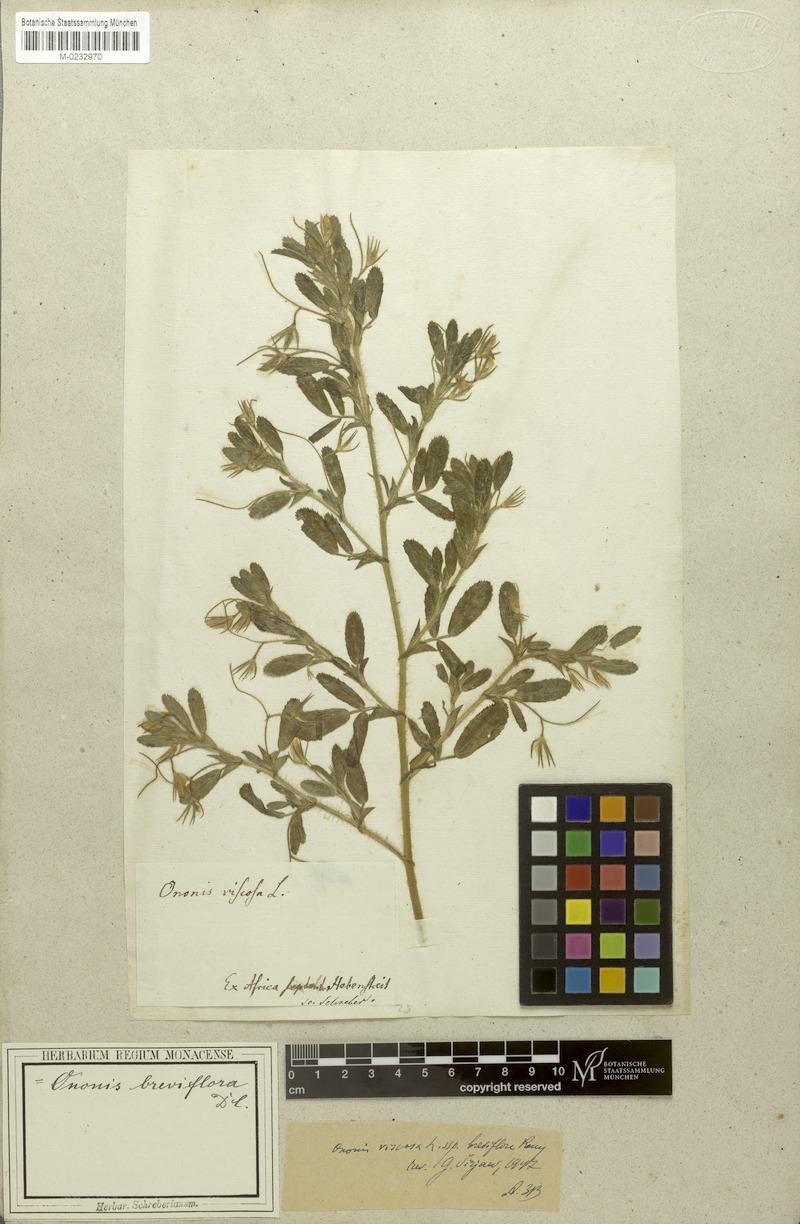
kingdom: Plantae
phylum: Tracheophyta
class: Magnoliopsida
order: Fabales
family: Fabaceae
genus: Ononis
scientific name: Ononis viscosa
